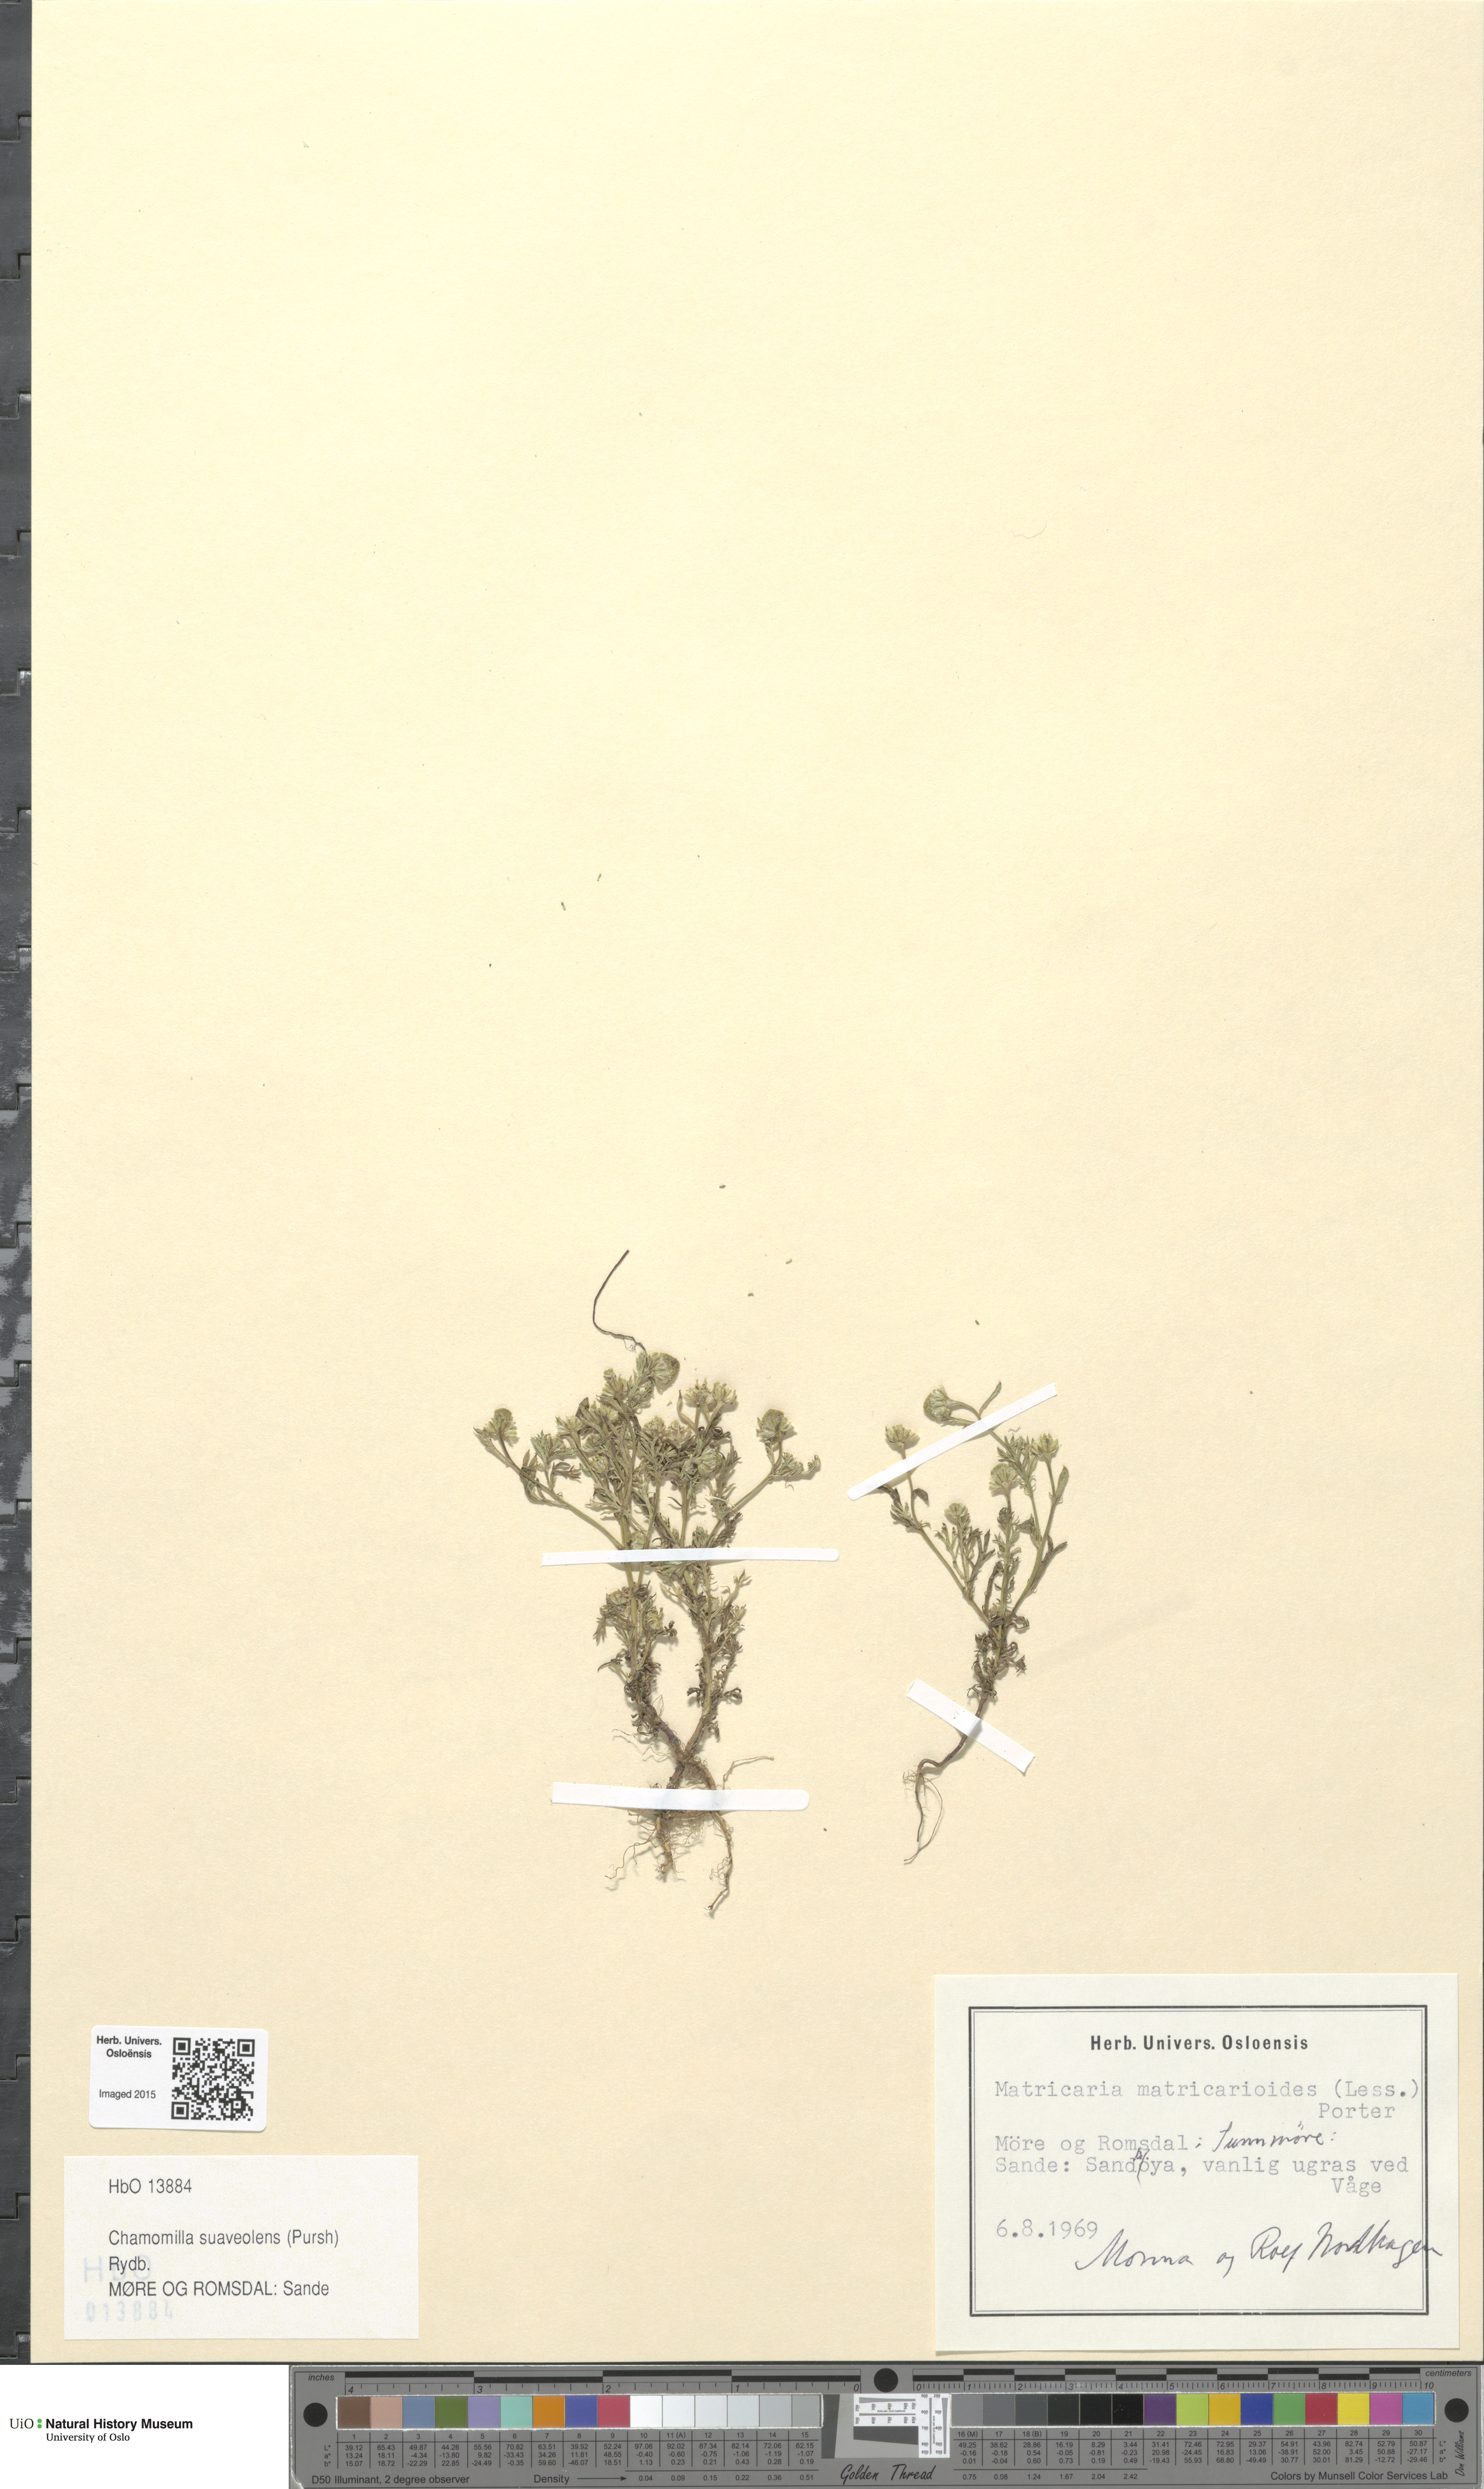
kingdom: Plantae
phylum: Tracheophyta
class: Magnoliopsida
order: Asterales
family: Asteraceae
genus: Matricaria
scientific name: Matricaria discoidea
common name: Disc mayweed
